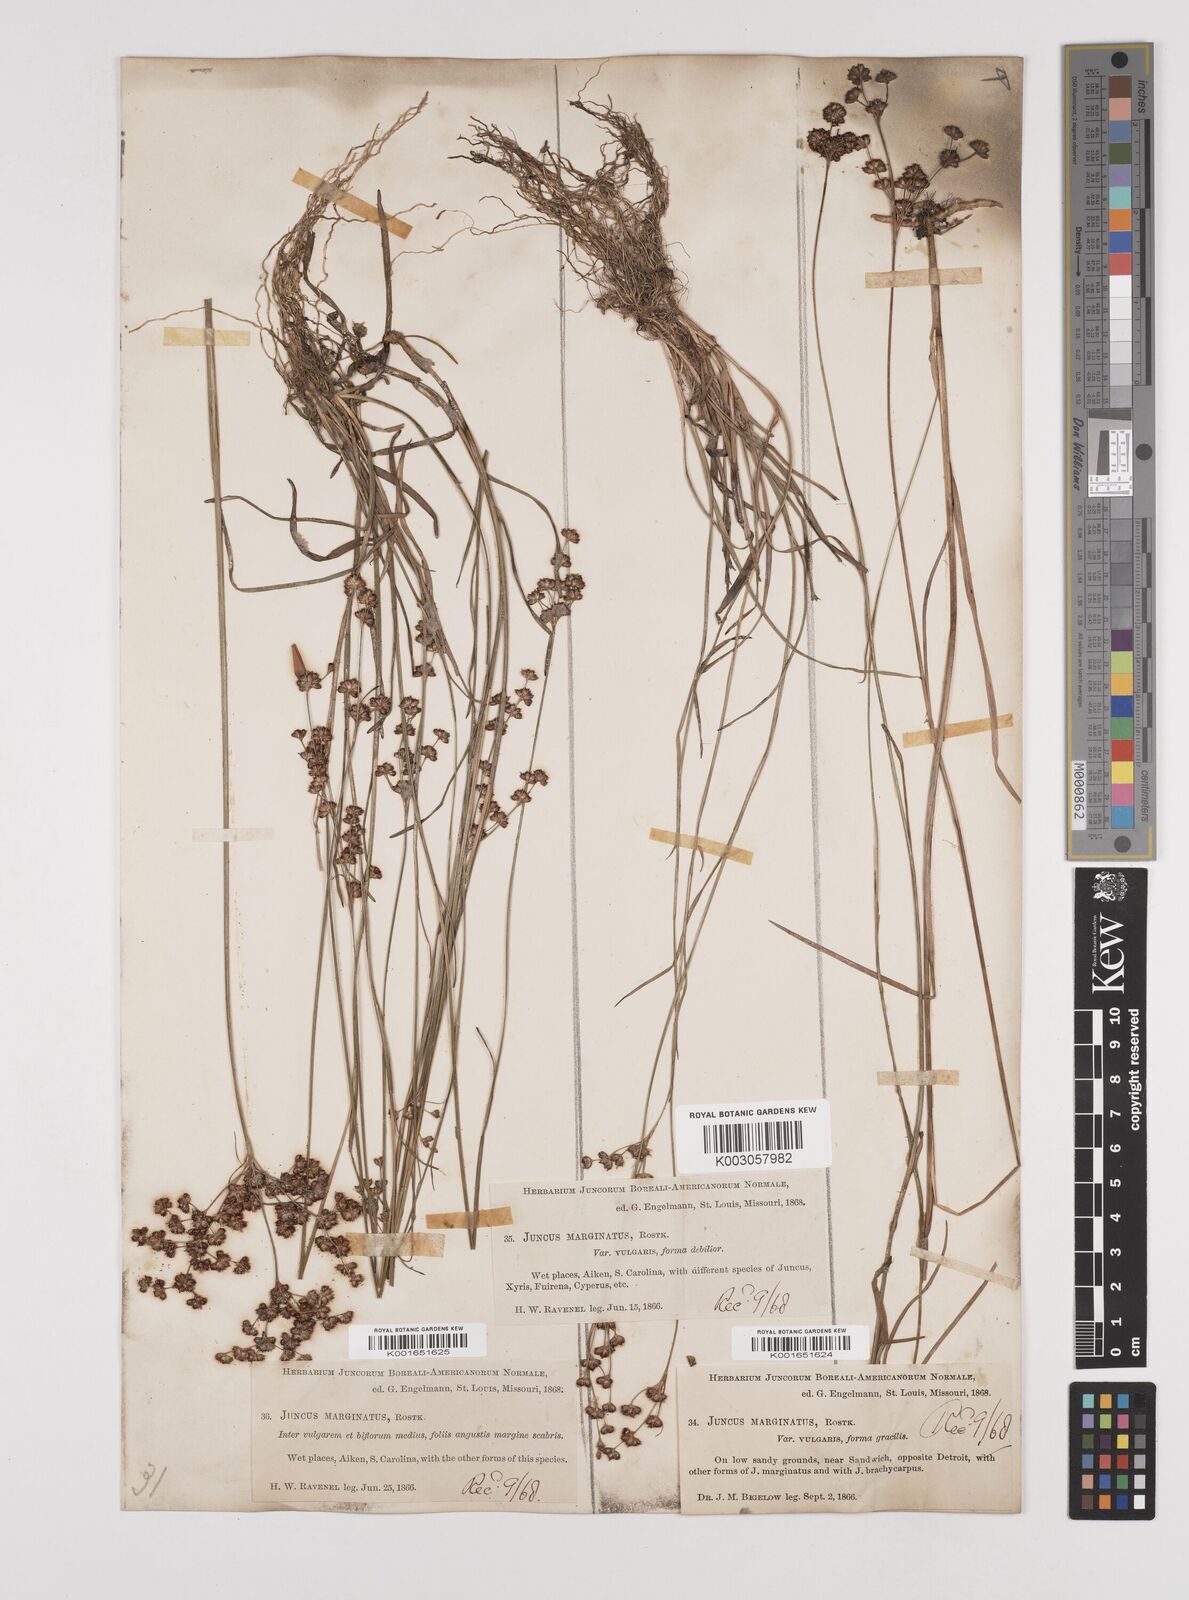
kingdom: Plantae
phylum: Tracheophyta
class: Liliopsida
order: Poales
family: Juncaceae
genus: Juncus
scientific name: Juncus marginatus
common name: Grass-leaf rush
